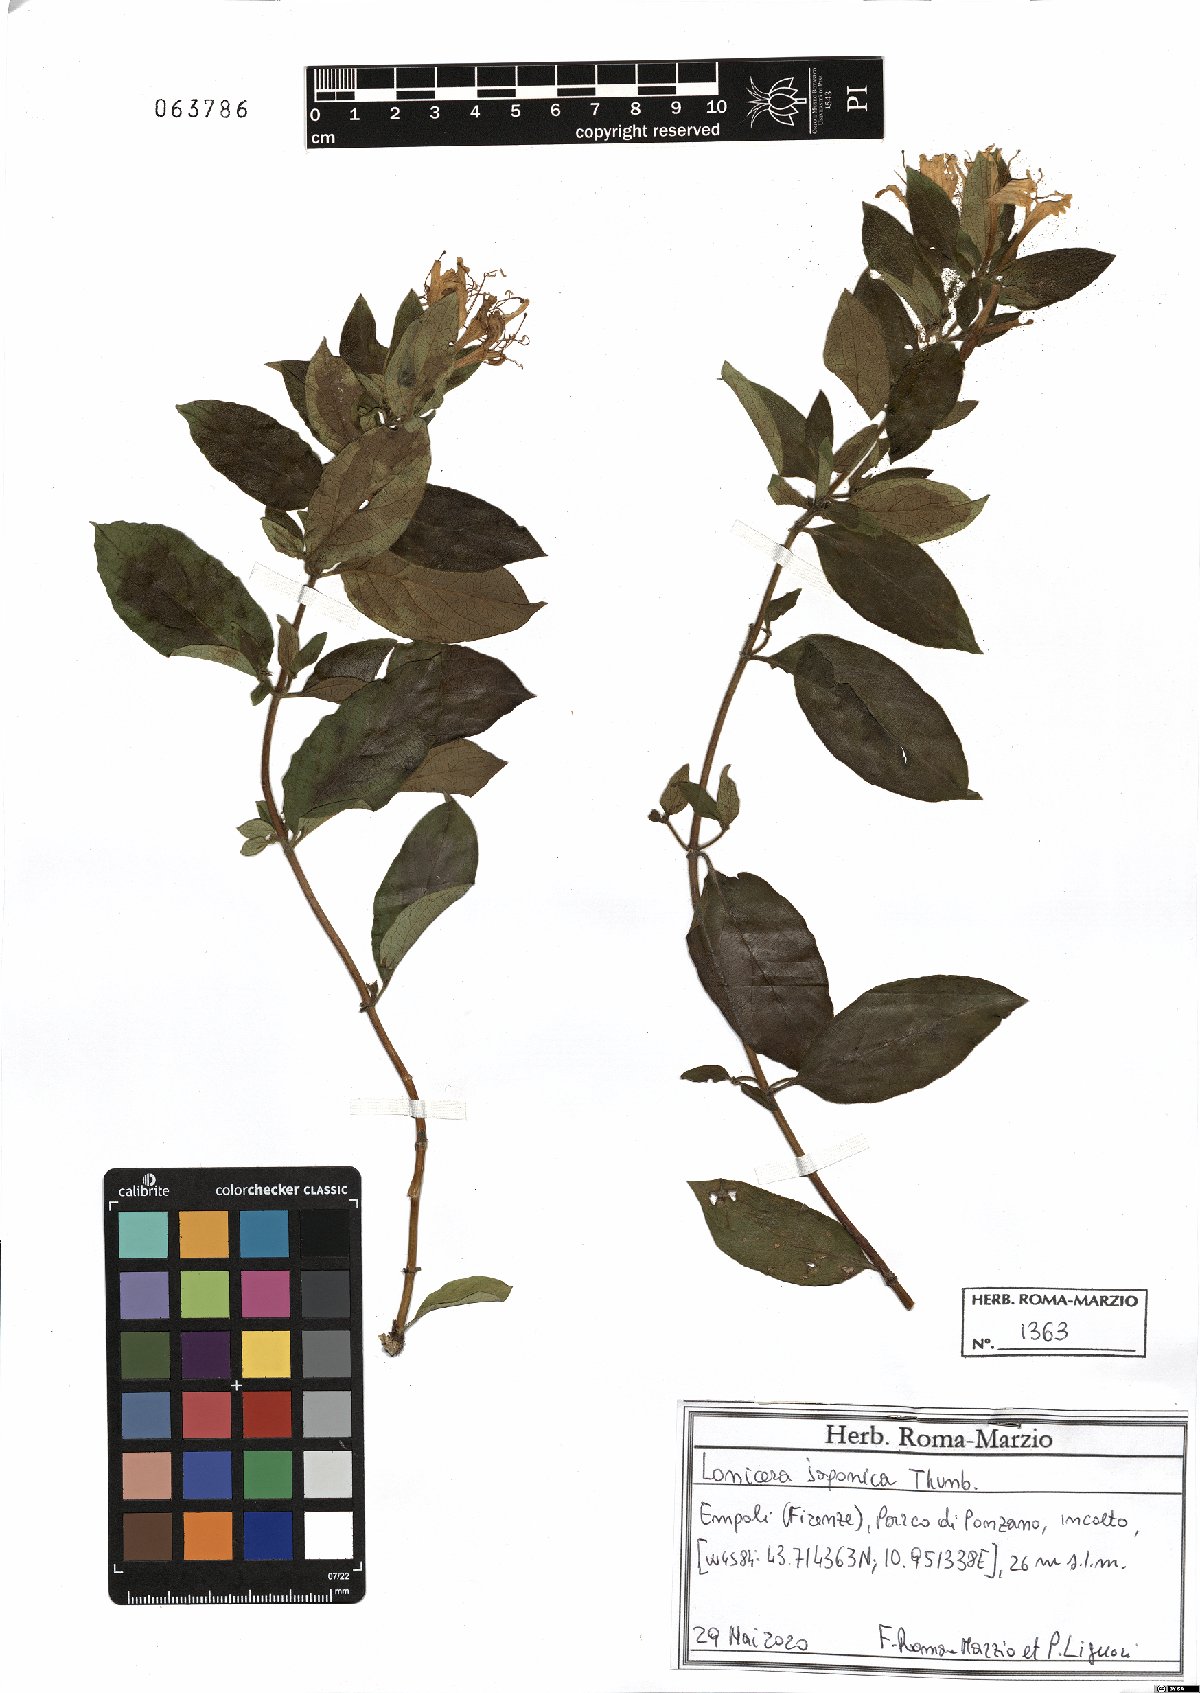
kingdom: Plantae
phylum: Tracheophyta
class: Magnoliopsida
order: Dipsacales
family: Caprifoliaceae
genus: Lonicera
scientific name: Lonicera japonica
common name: Japanese honeysuckle
